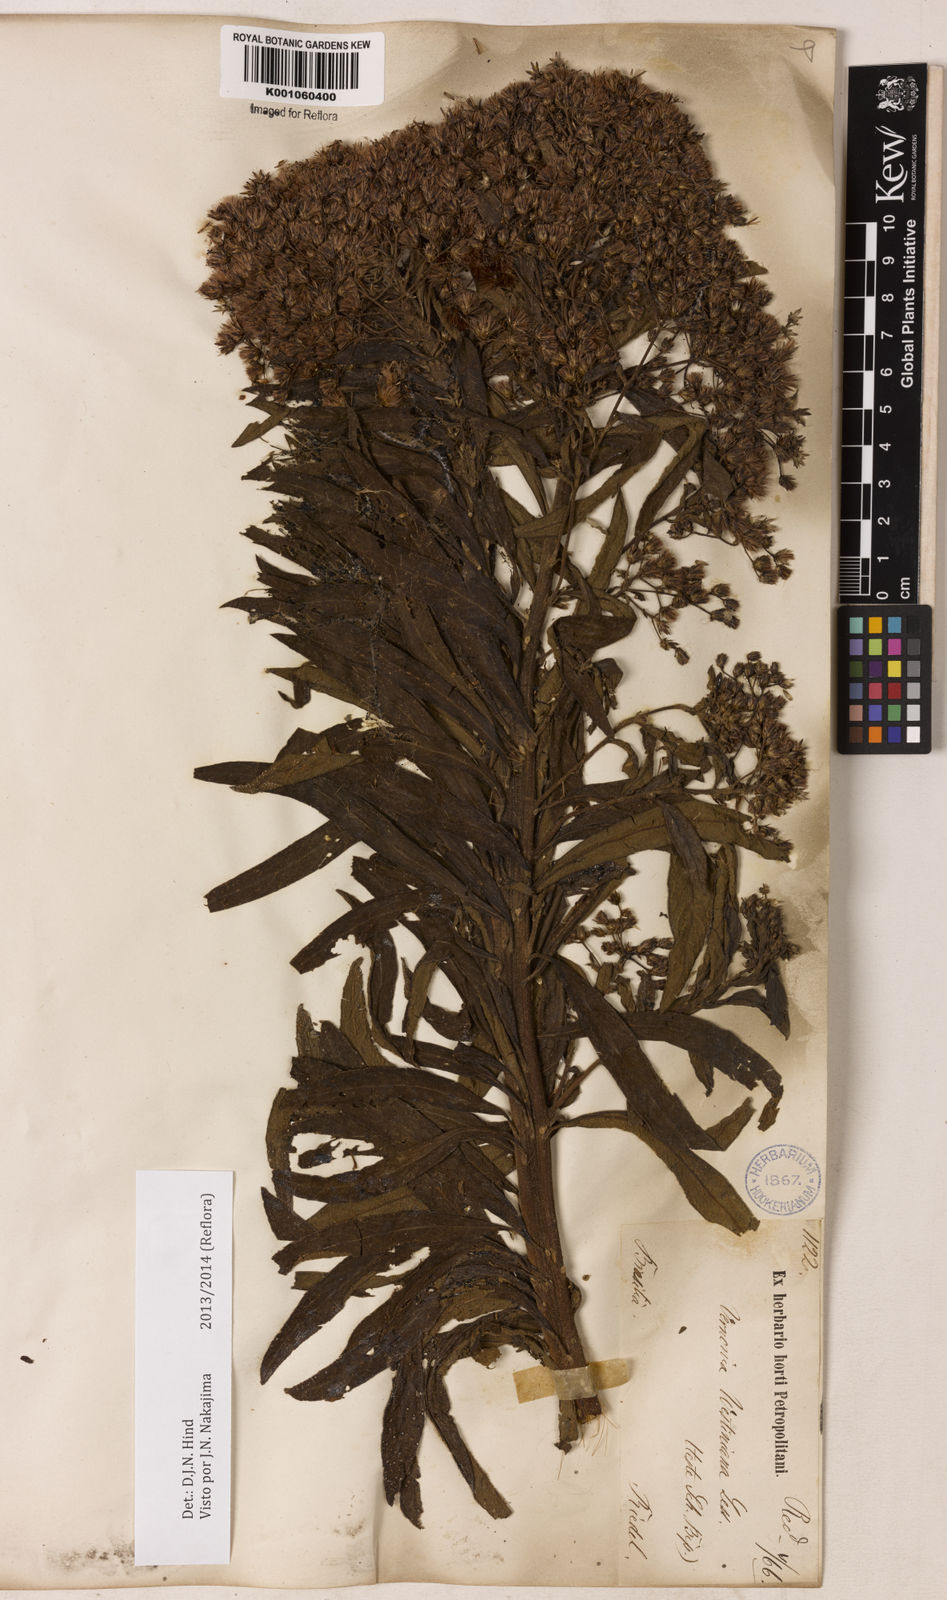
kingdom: Plantae
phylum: Tracheophyta
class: Magnoliopsida
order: Asterales
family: Asteraceae
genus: Vernonanthura
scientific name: Vernonanthura westiniana
